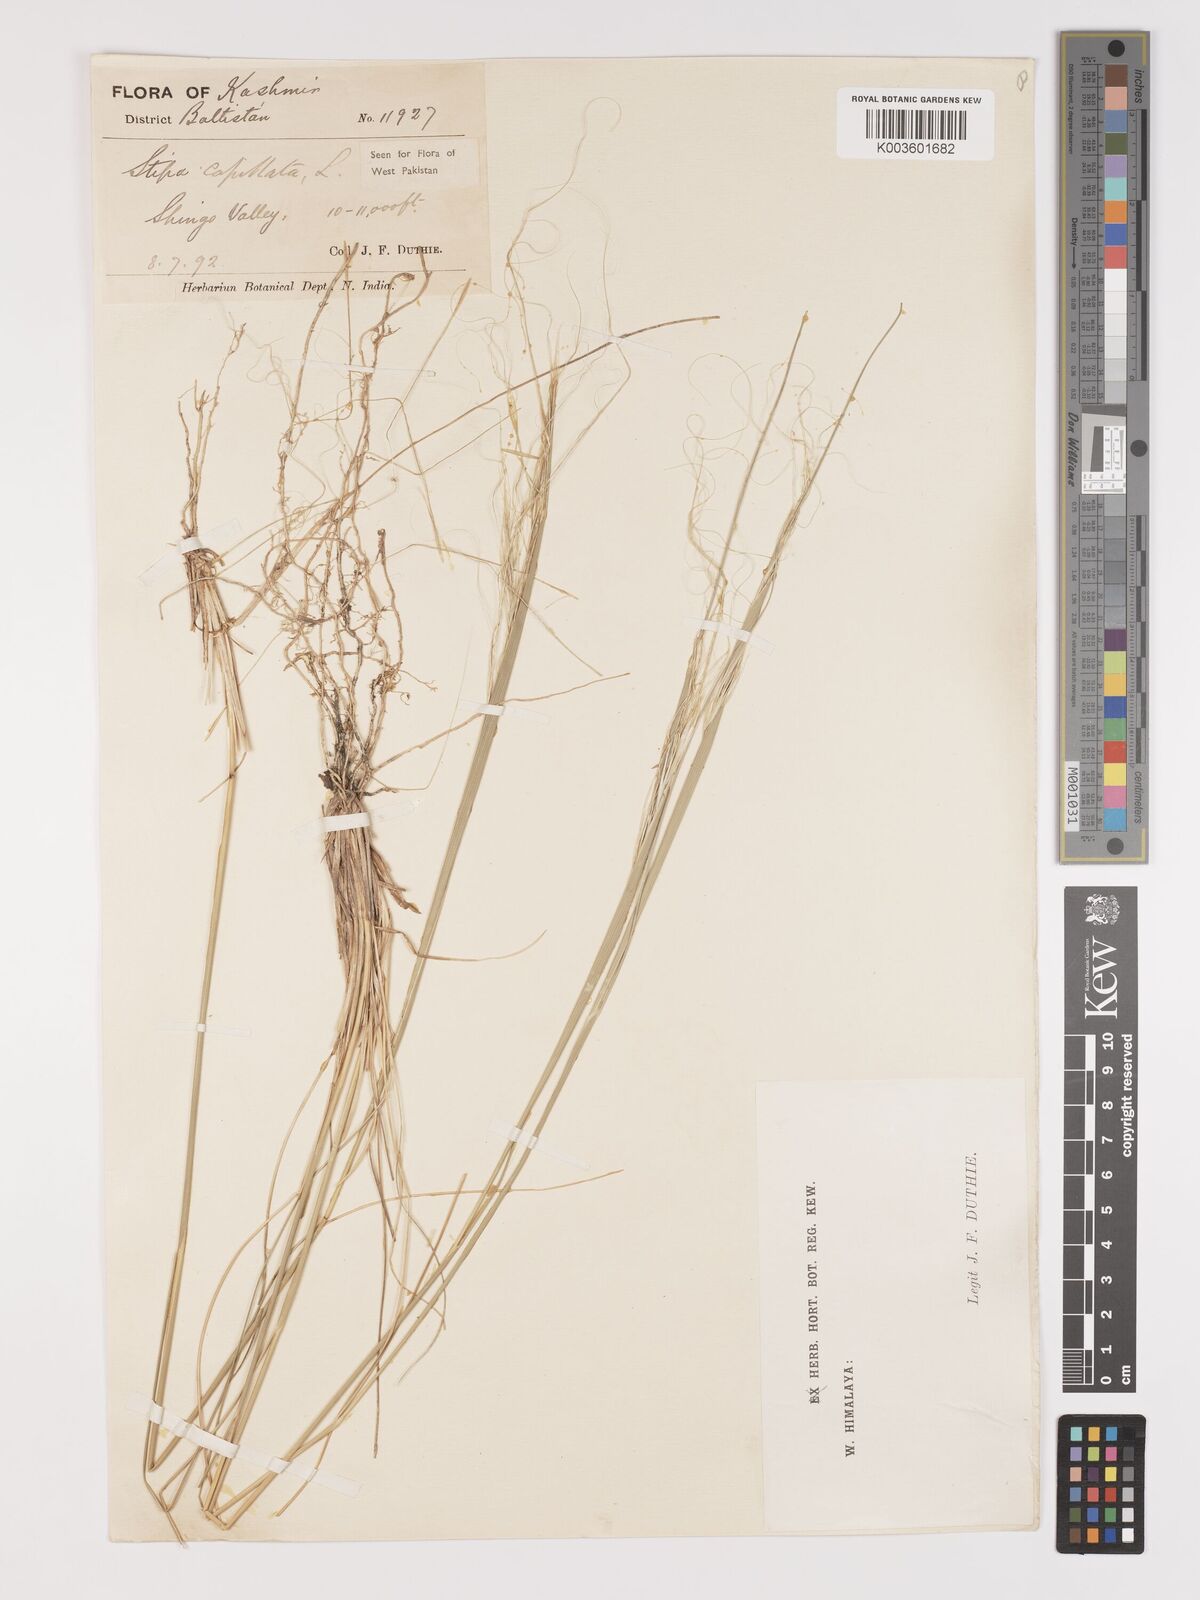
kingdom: Plantae
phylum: Tracheophyta
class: Liliopsida
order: Poales
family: Poaceae
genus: Stipa
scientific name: Stipa capillata
